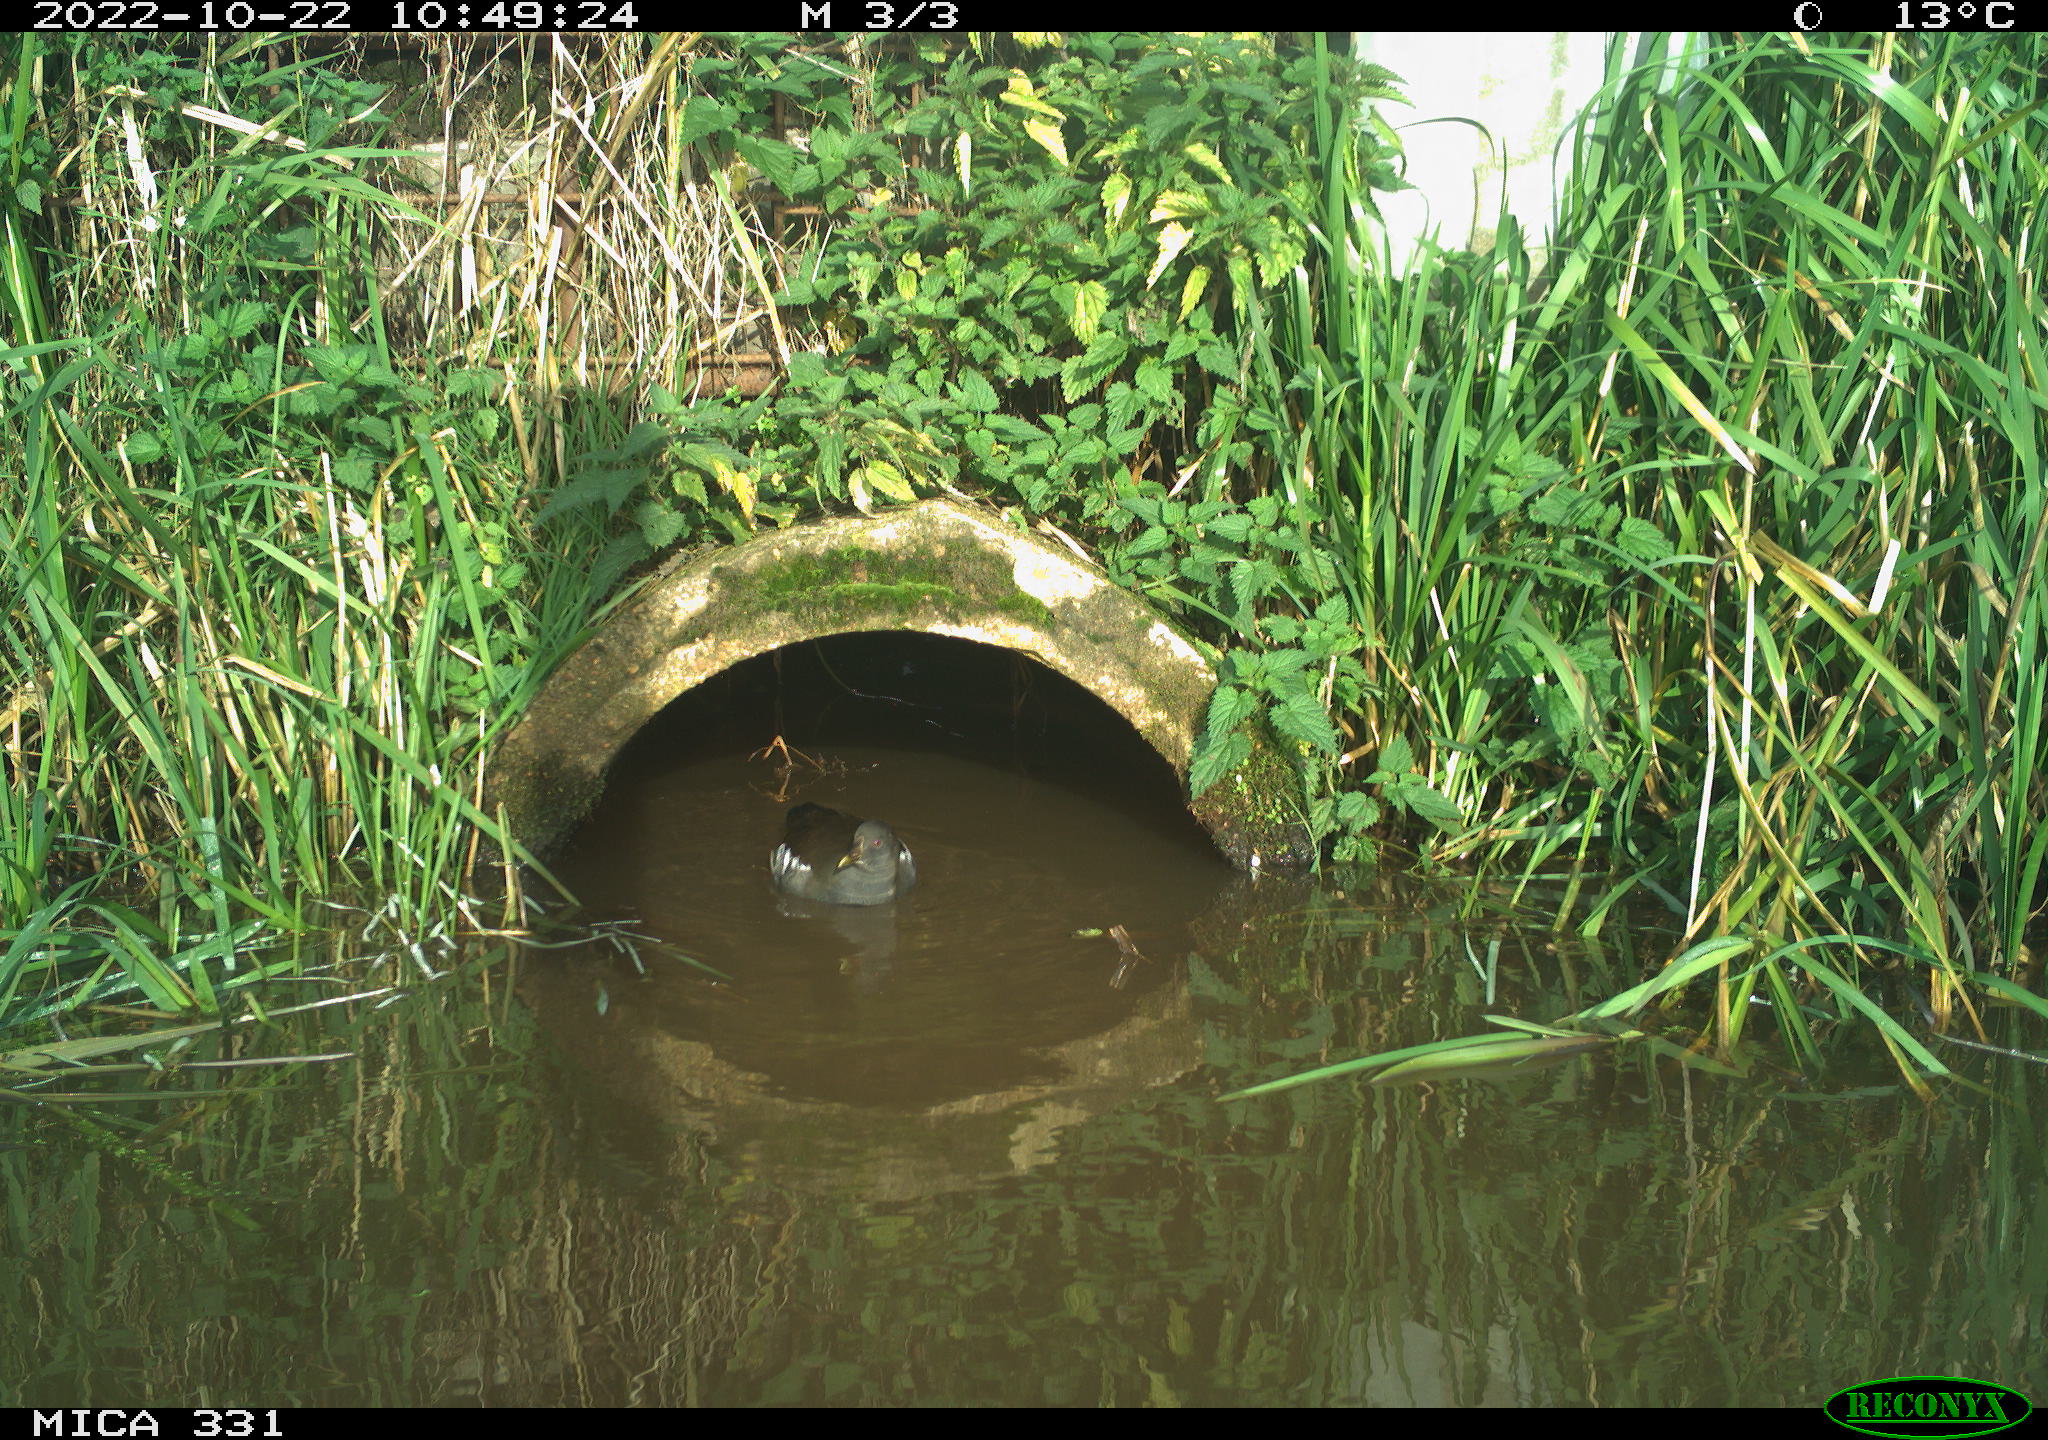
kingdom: Animalia
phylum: Chordata
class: Aves
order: Gruiformes
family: Rallidae
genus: Gallinula
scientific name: Gallinula chloropus
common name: Common moorhen
